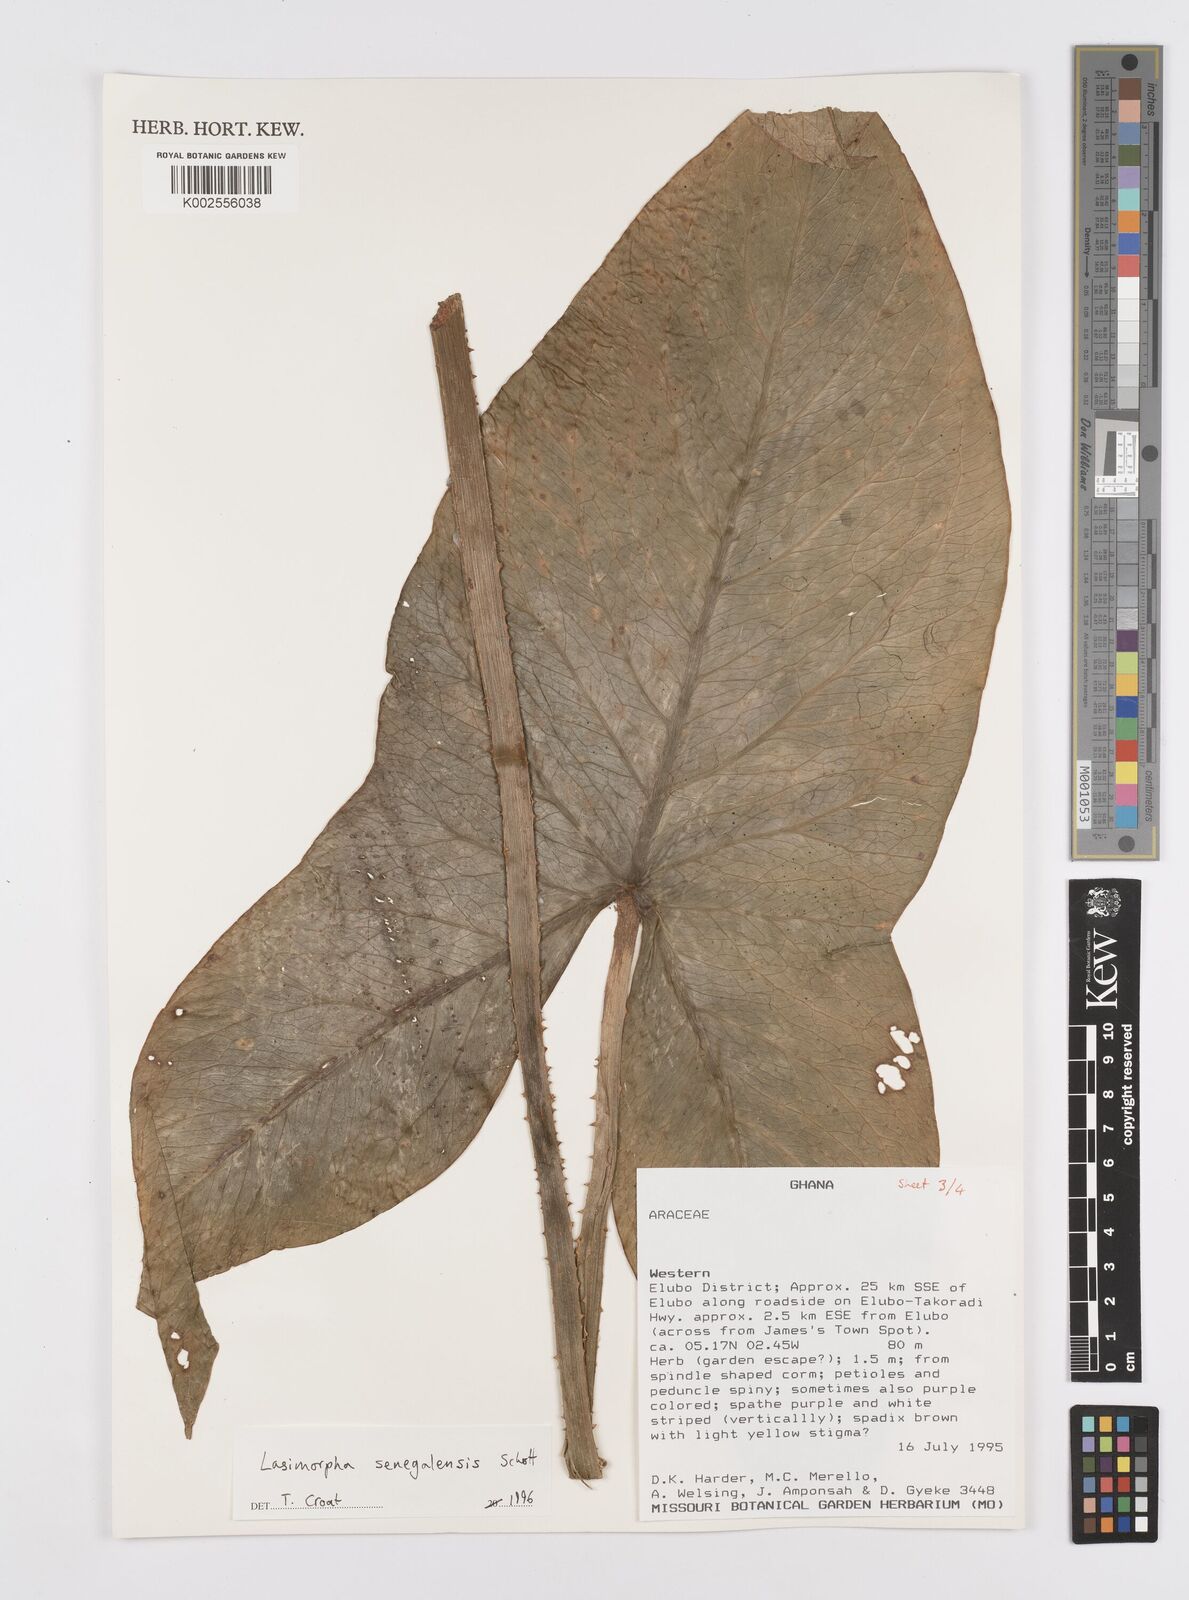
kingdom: Plantae
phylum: Tracheophyta
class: Liliopsida
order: Alismatales
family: Araceae
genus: Lasimorpha
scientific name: Lasimorpha senegalensis
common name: Swamp arum
